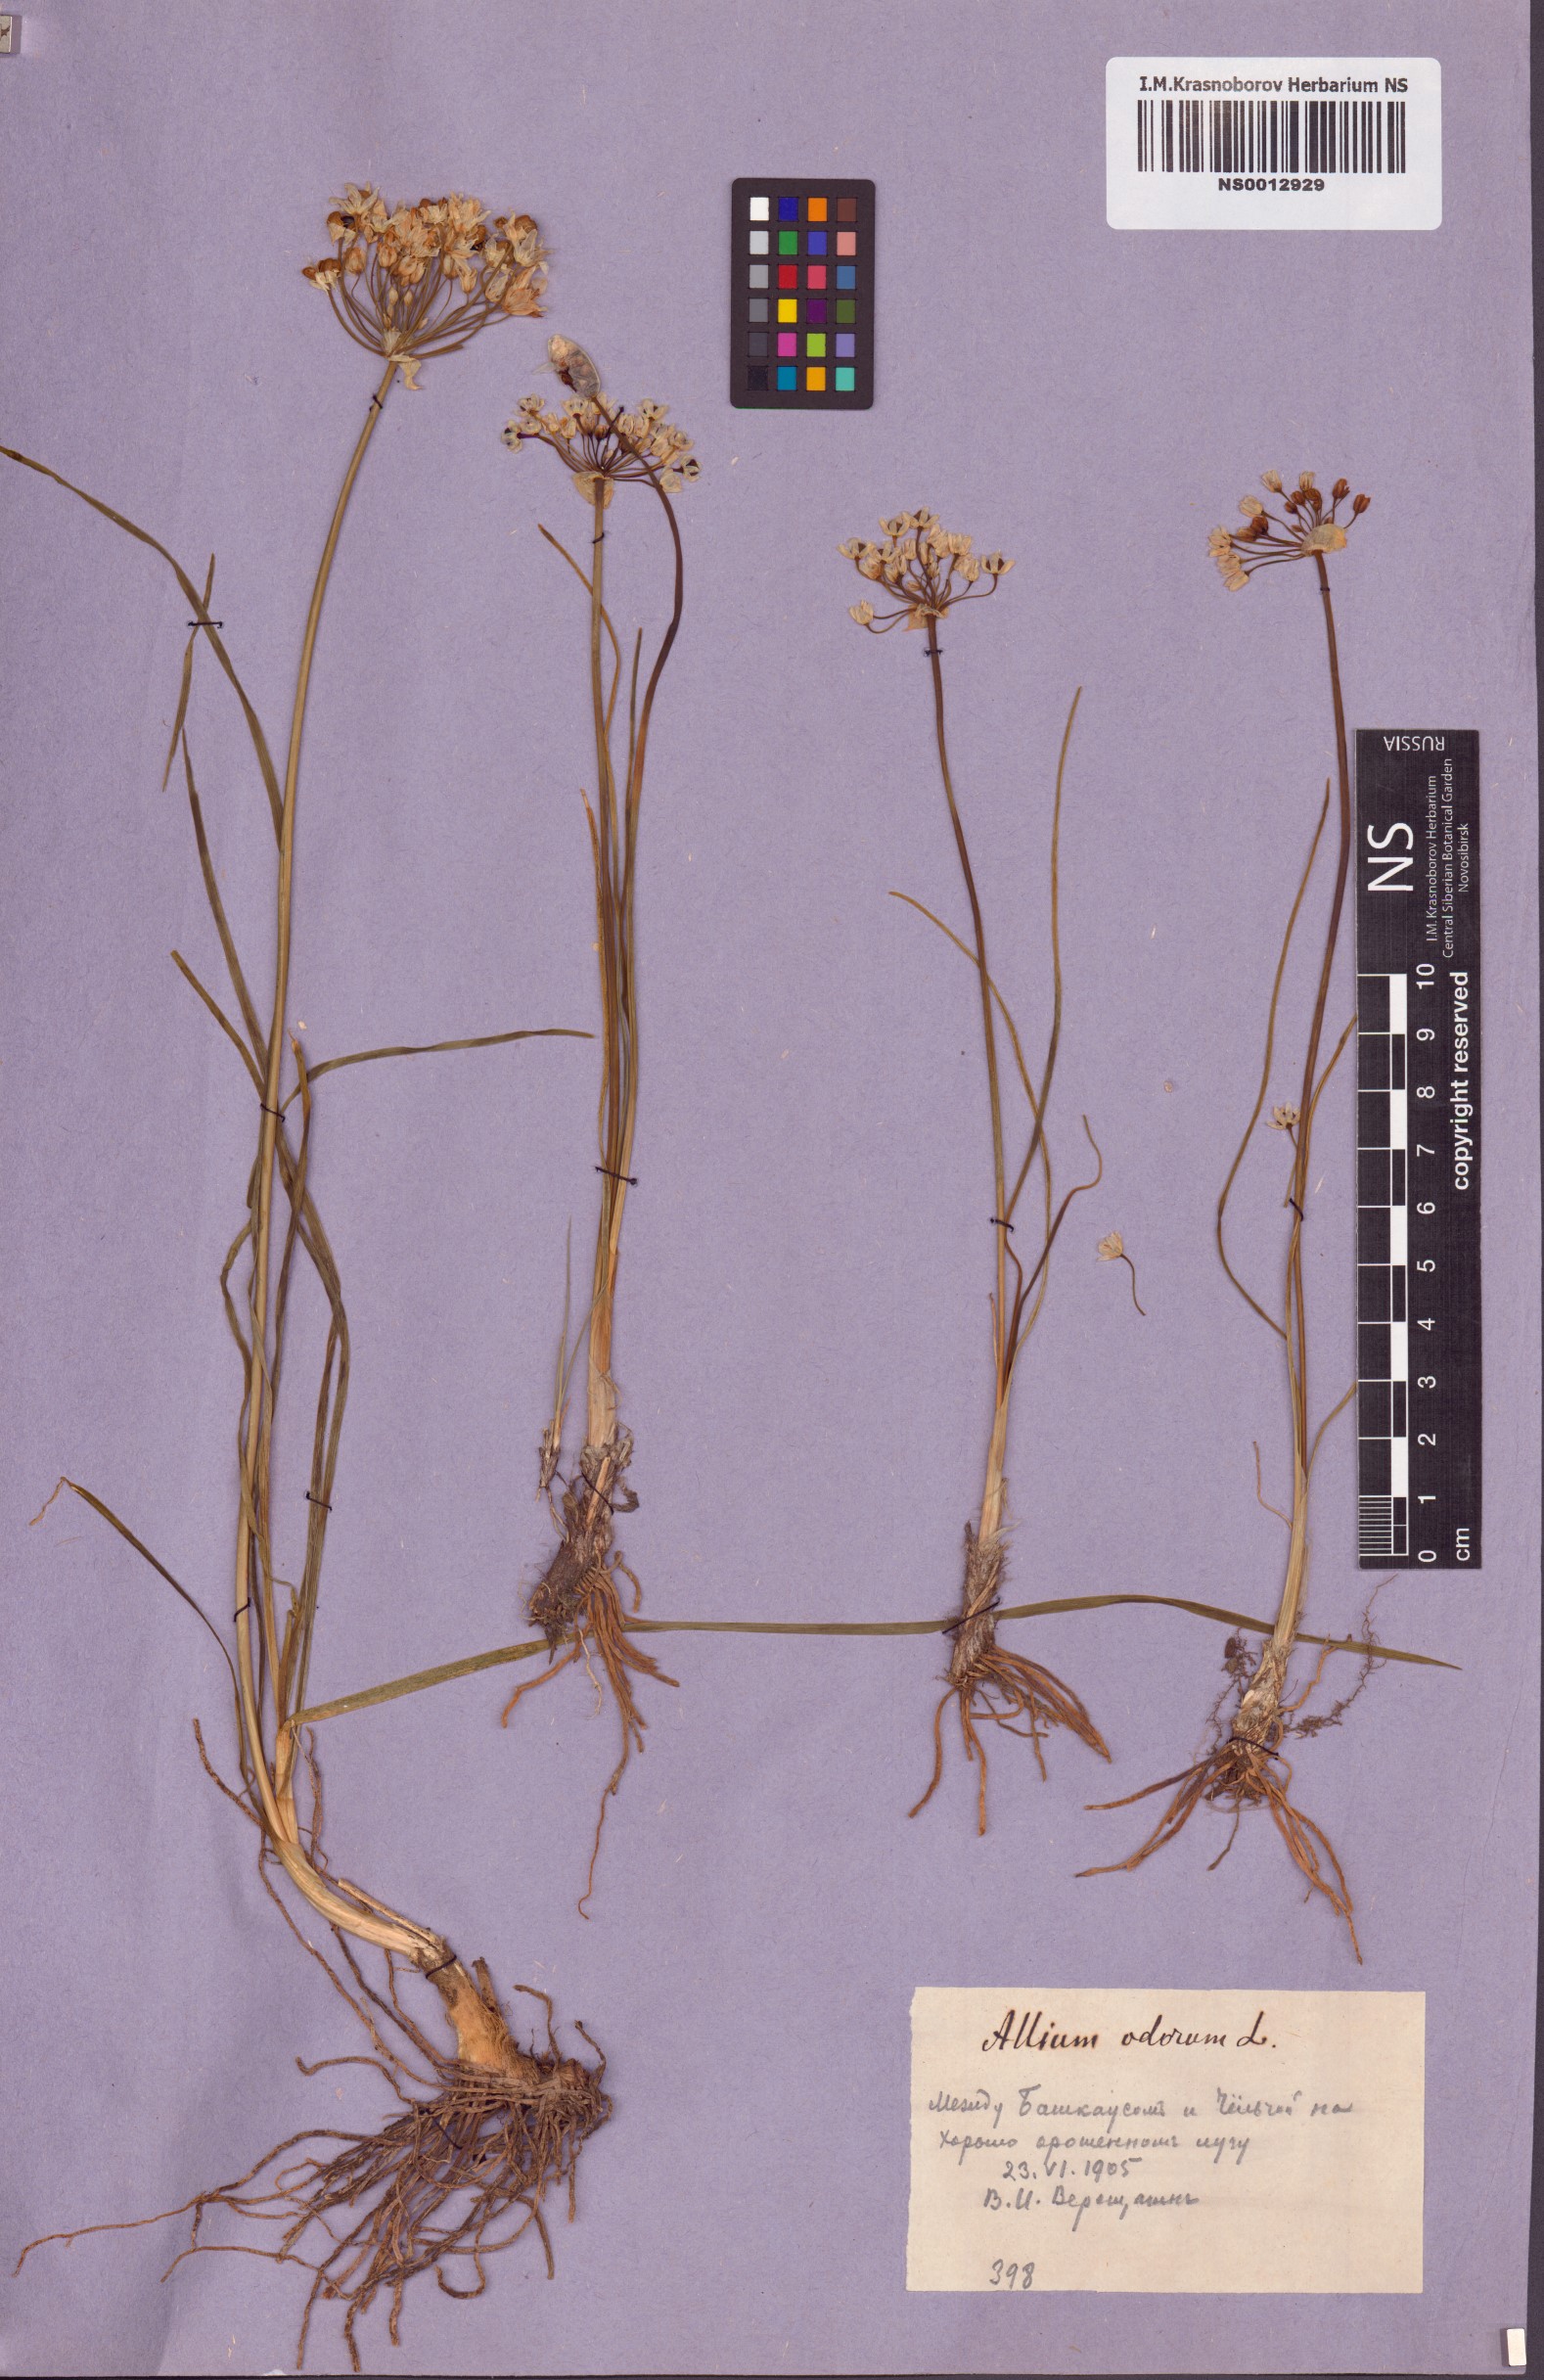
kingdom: Plantae
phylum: Tracheophyta
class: Liliopsida
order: Asparagales
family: Amaryllidaceae
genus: Allium
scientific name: Allium ramosum
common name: Fragrant garlic
